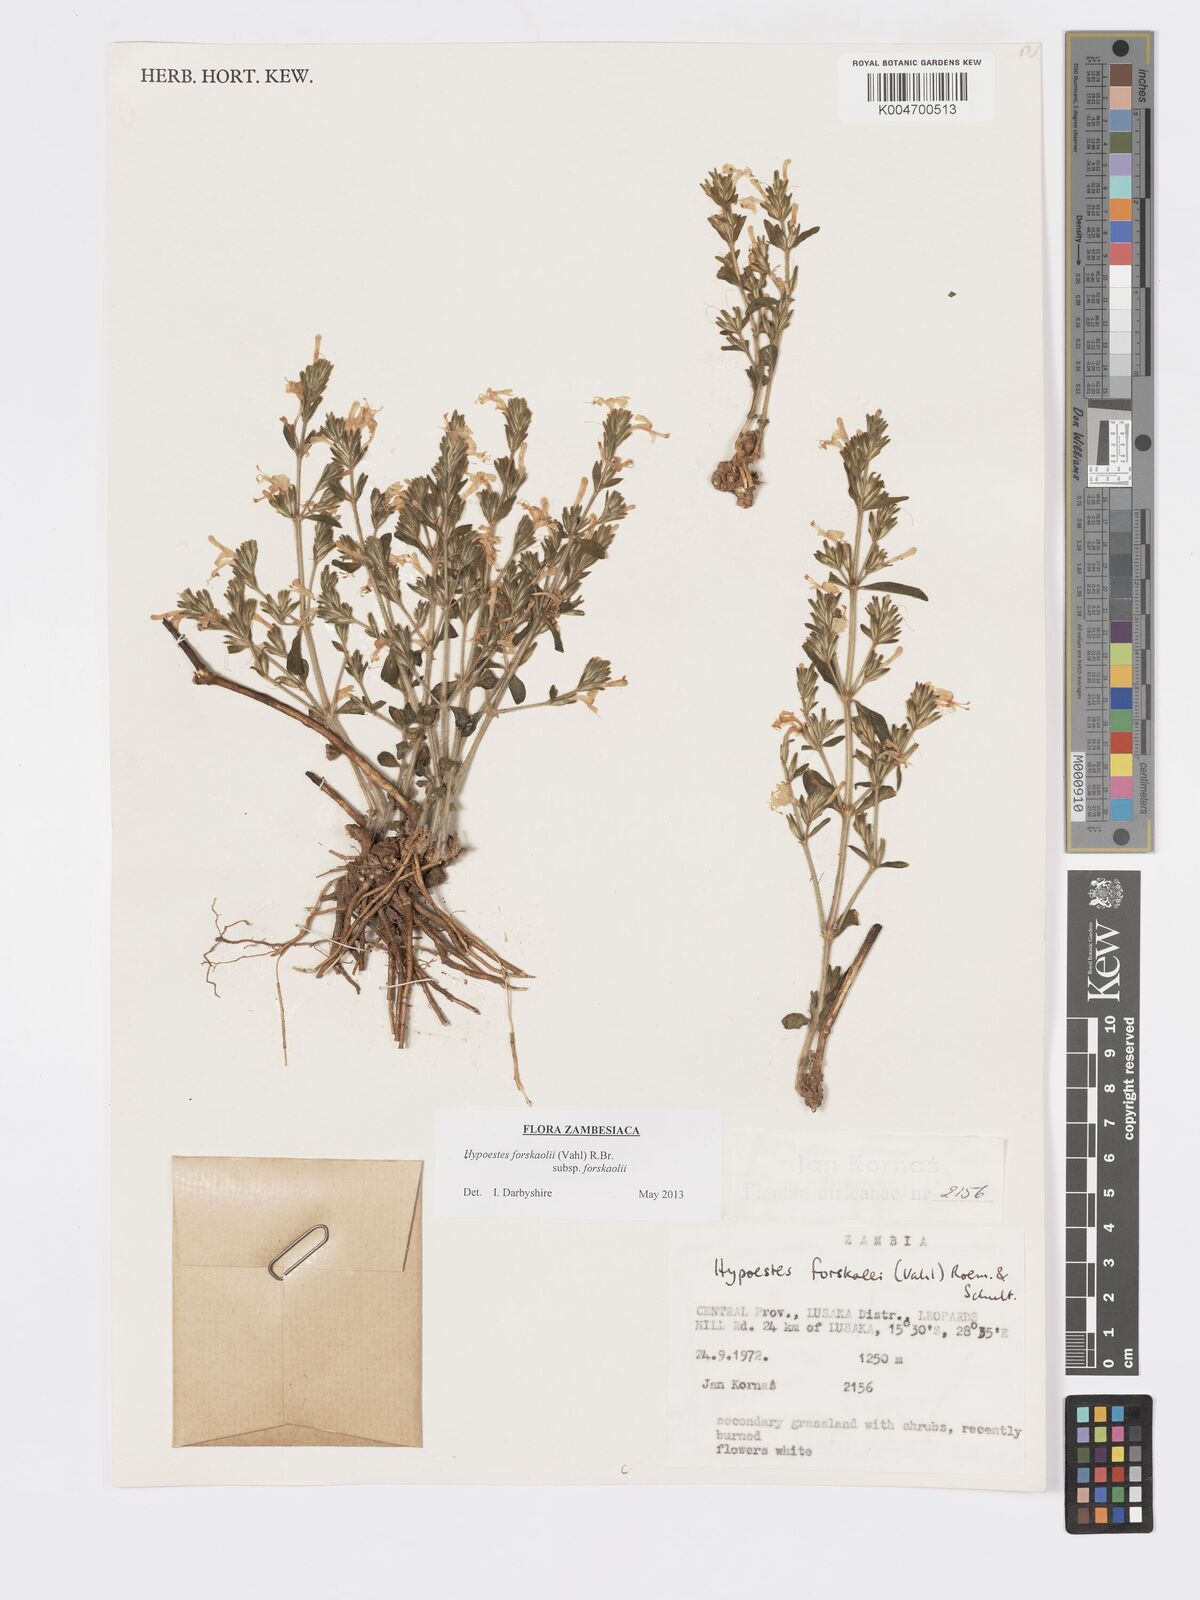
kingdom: Plantae
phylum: Tracheophyta
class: Magnoliopsida
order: Lamiales
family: Acanthaceae
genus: Hypoestes
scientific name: Hypoestes forskaolii
